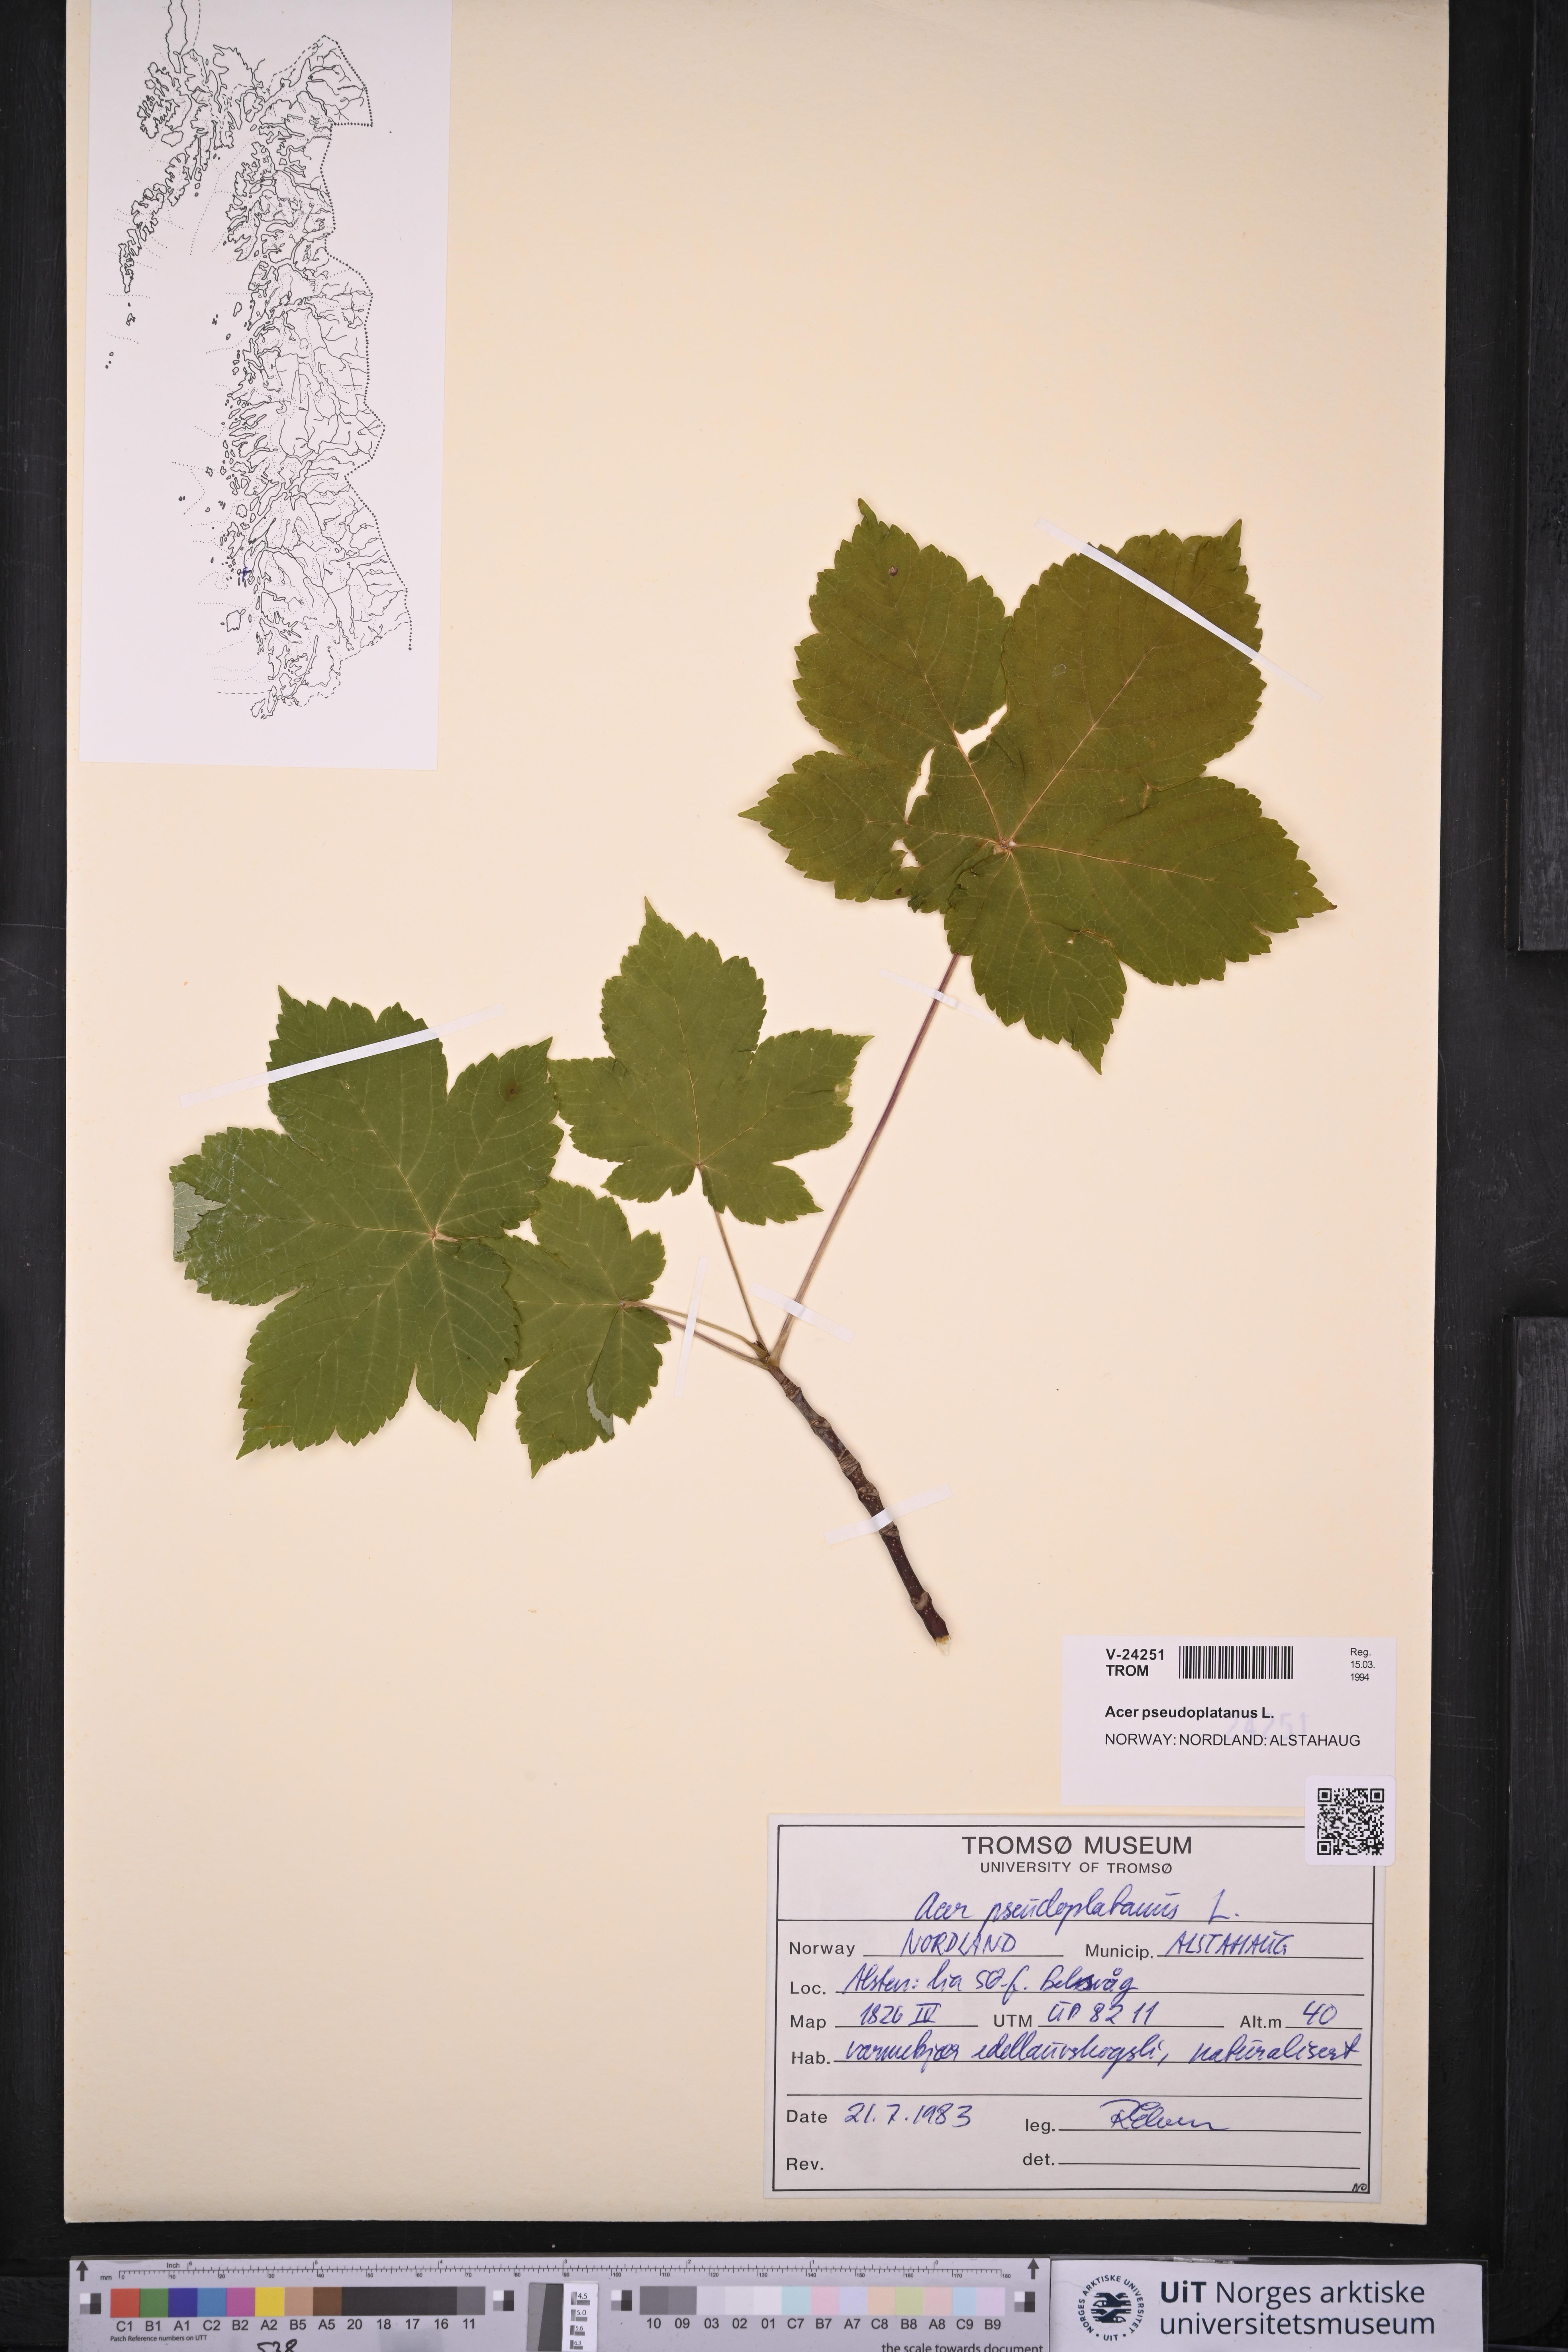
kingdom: Plantae
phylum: Tracheophyta
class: Magnoliopsida
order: Sapindales
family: Sapindaceae
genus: Acer
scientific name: Acer pseudoplatanus
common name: Sycamore
